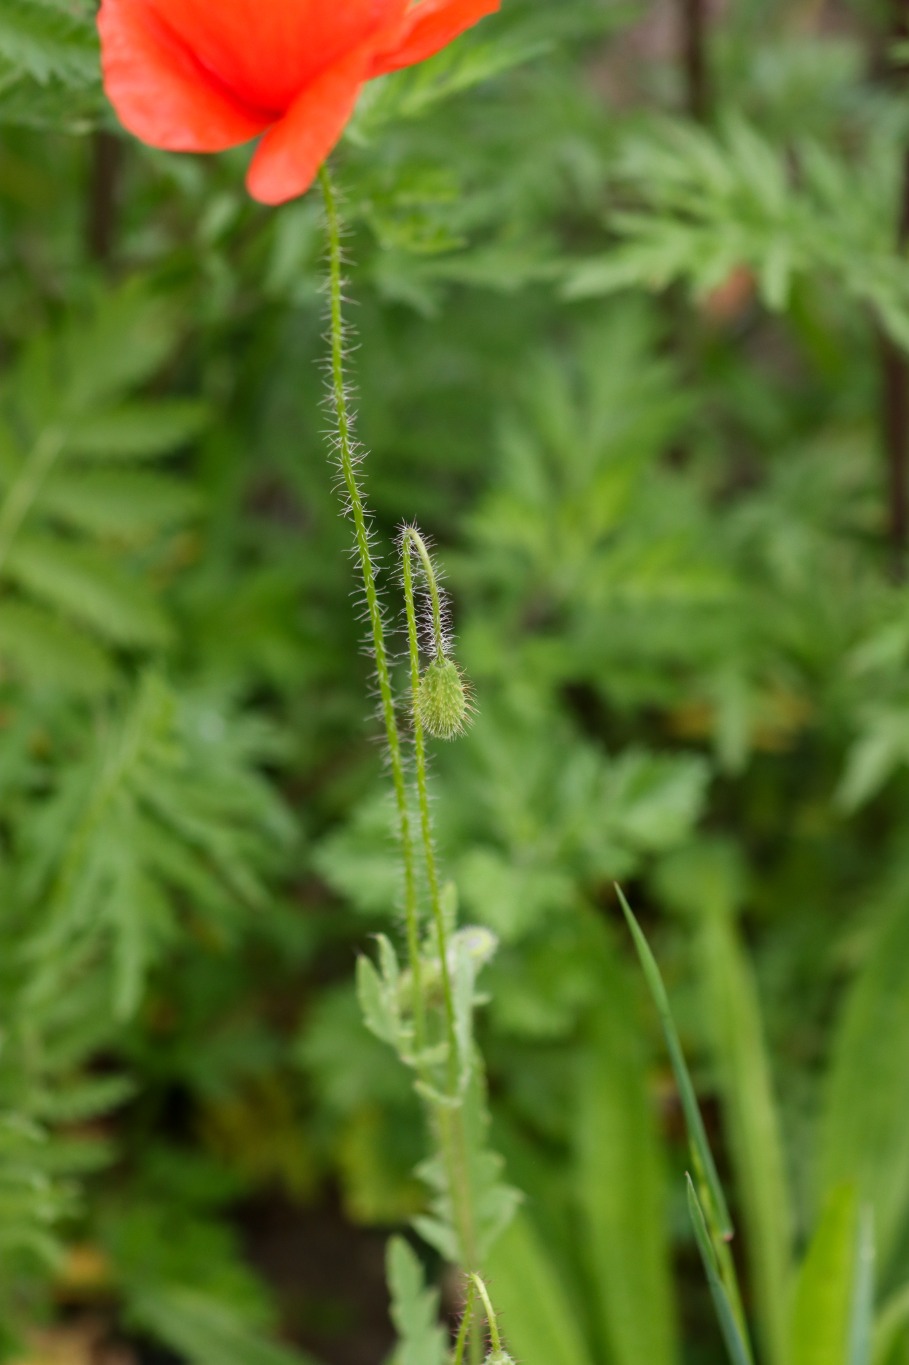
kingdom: Plantae
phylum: Tracheophyta
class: Magnoliopsida
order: Ranunculales
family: Papaveraceae
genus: Papaver
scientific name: Papaver rhoeas
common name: Korn-valmue
